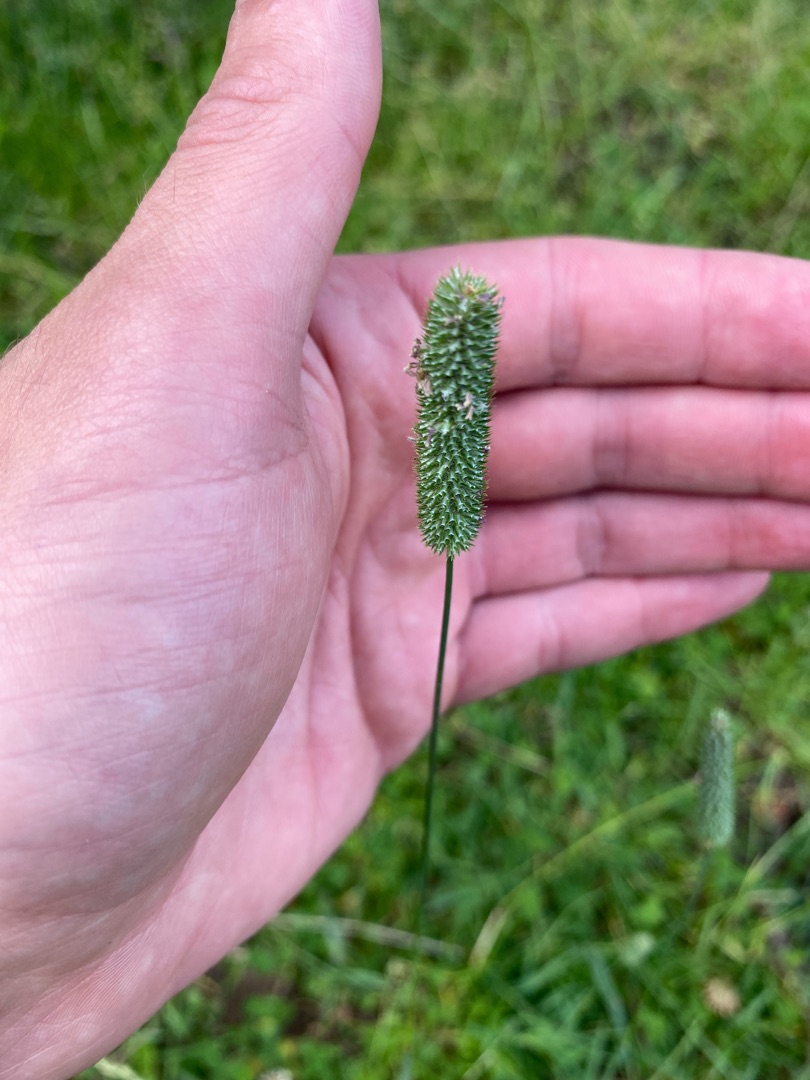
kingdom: Plantae
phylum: Tracheophyta
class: Liliopsida
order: Poales
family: Poaceae
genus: Phleum
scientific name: Phleum pratense
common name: Eng-rottehale
